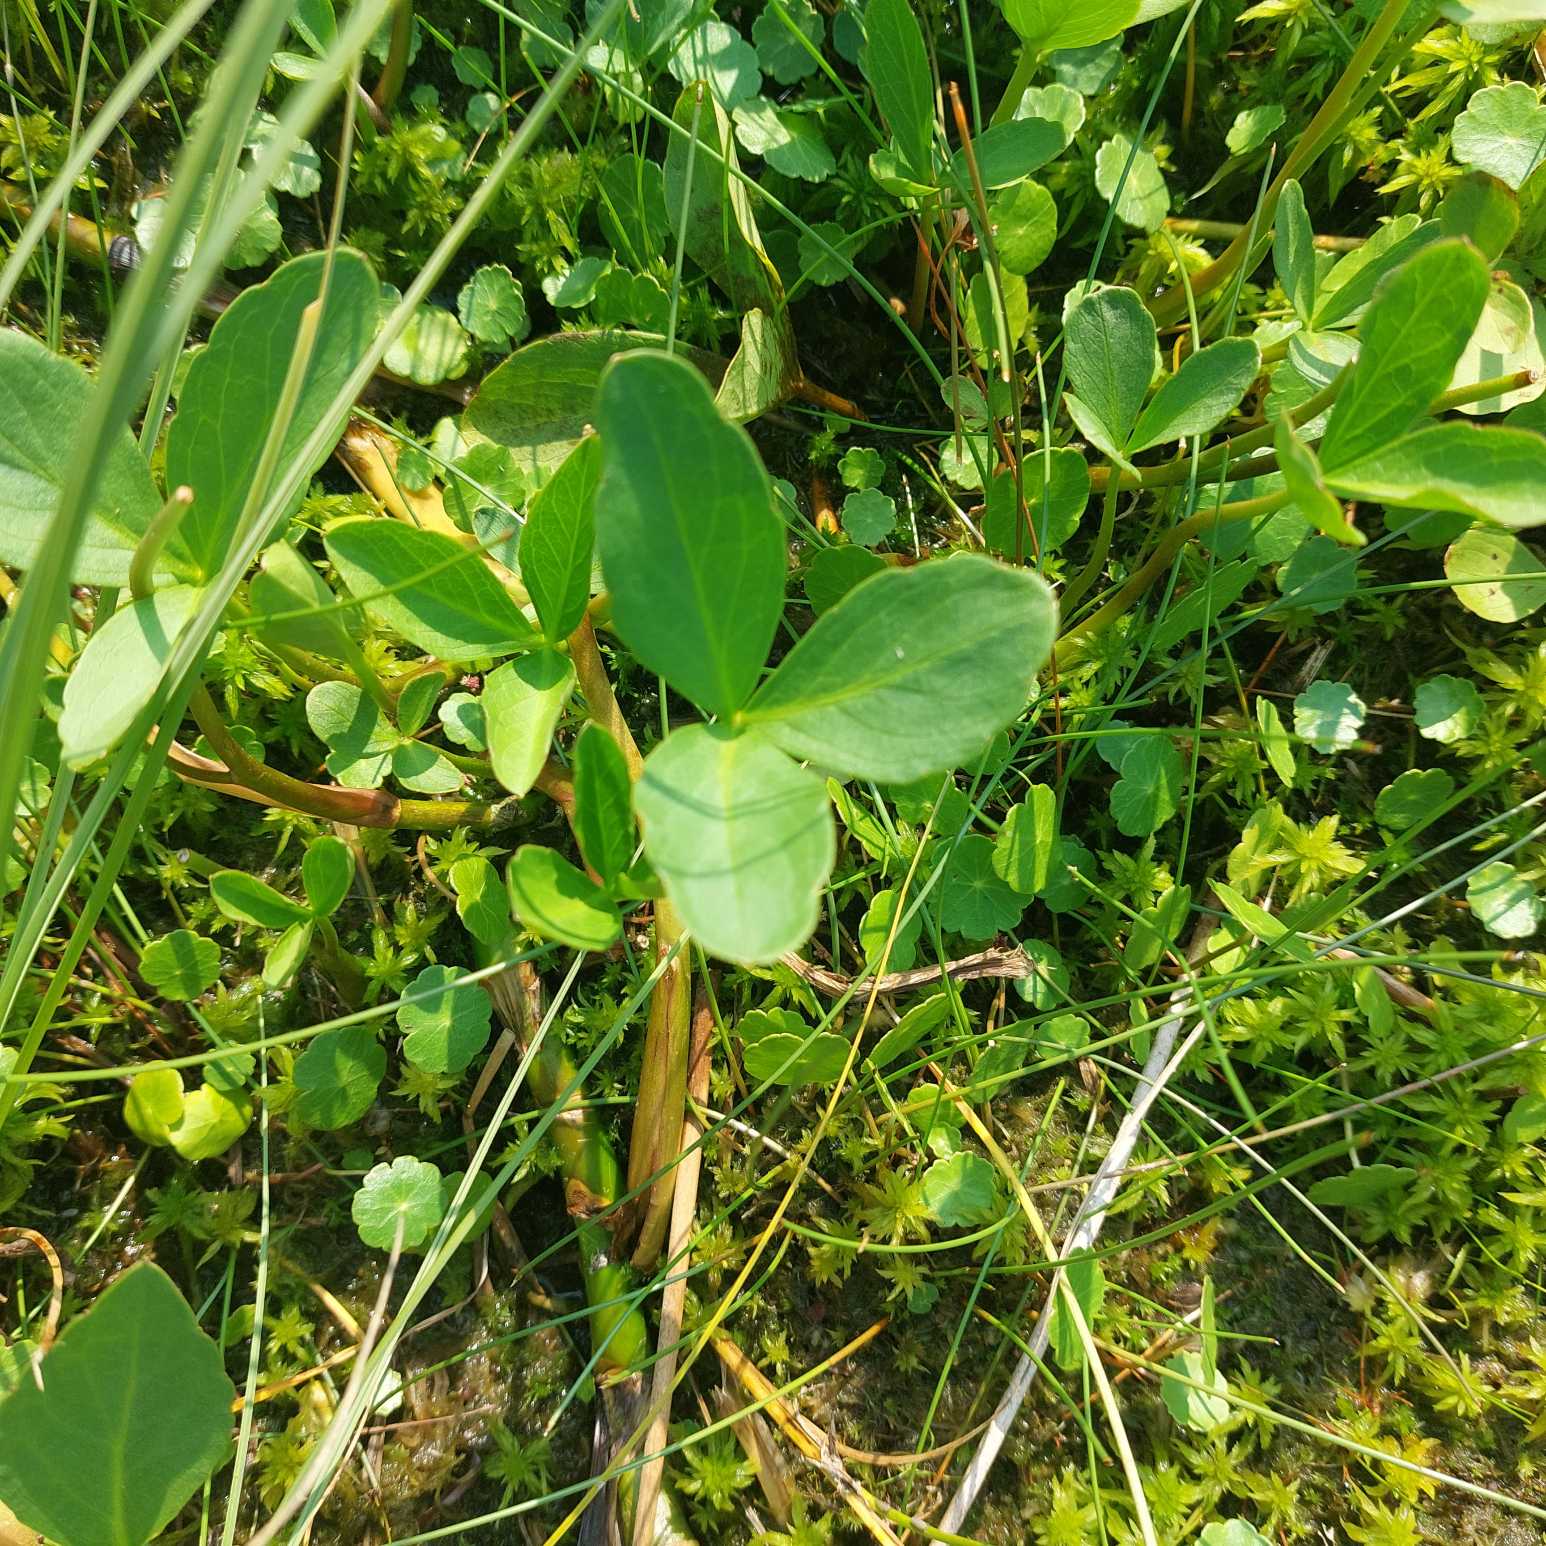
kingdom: Plantae
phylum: Tracheophyta
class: Magnoliopsida
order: Asterales
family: Menyanthaceae
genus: Menyanthes
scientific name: Menyanthes trifoliata
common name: Bukkeblad
